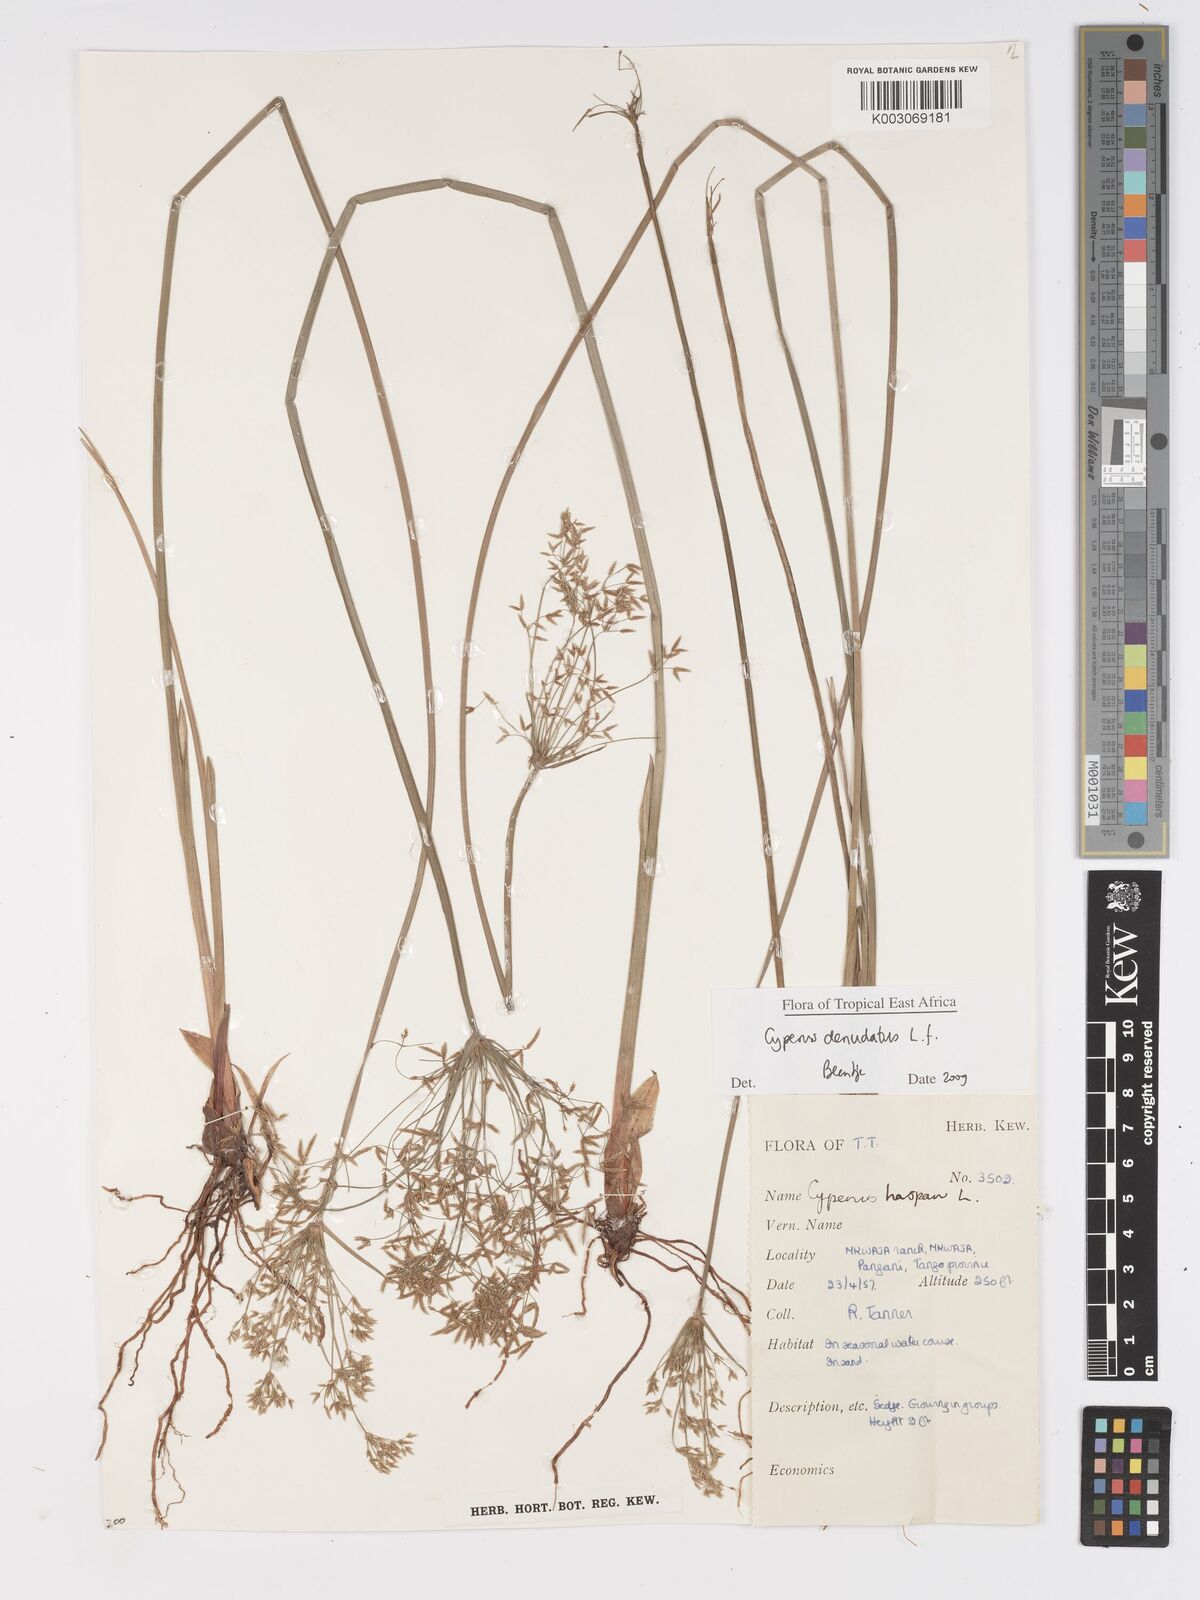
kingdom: Plantae
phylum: Tracheophyta
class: Liliopsida
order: Poales
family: Cyperaceae
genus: Cyperus
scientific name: Cyperus denudatus
